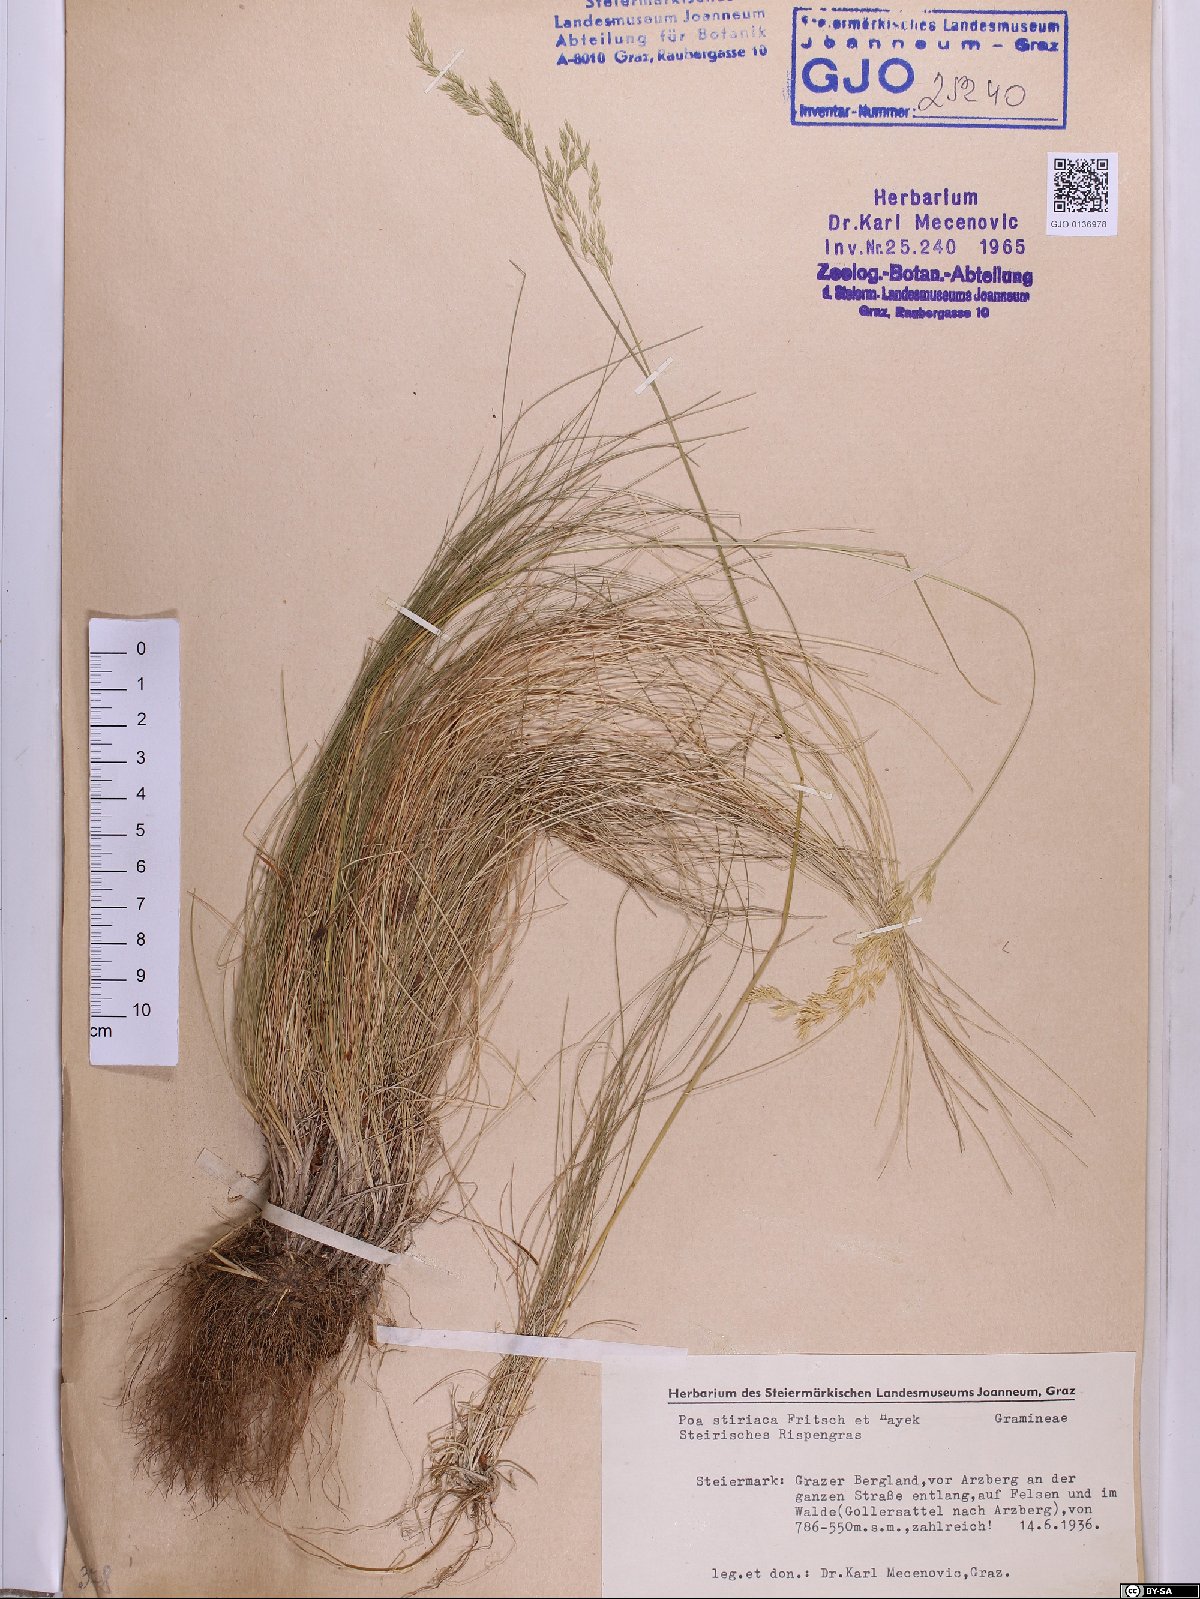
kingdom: Plantae
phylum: Tracheophyta
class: Liliopsida
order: Poales
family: Poaceae
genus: Poa
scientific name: Poa stiriaca
